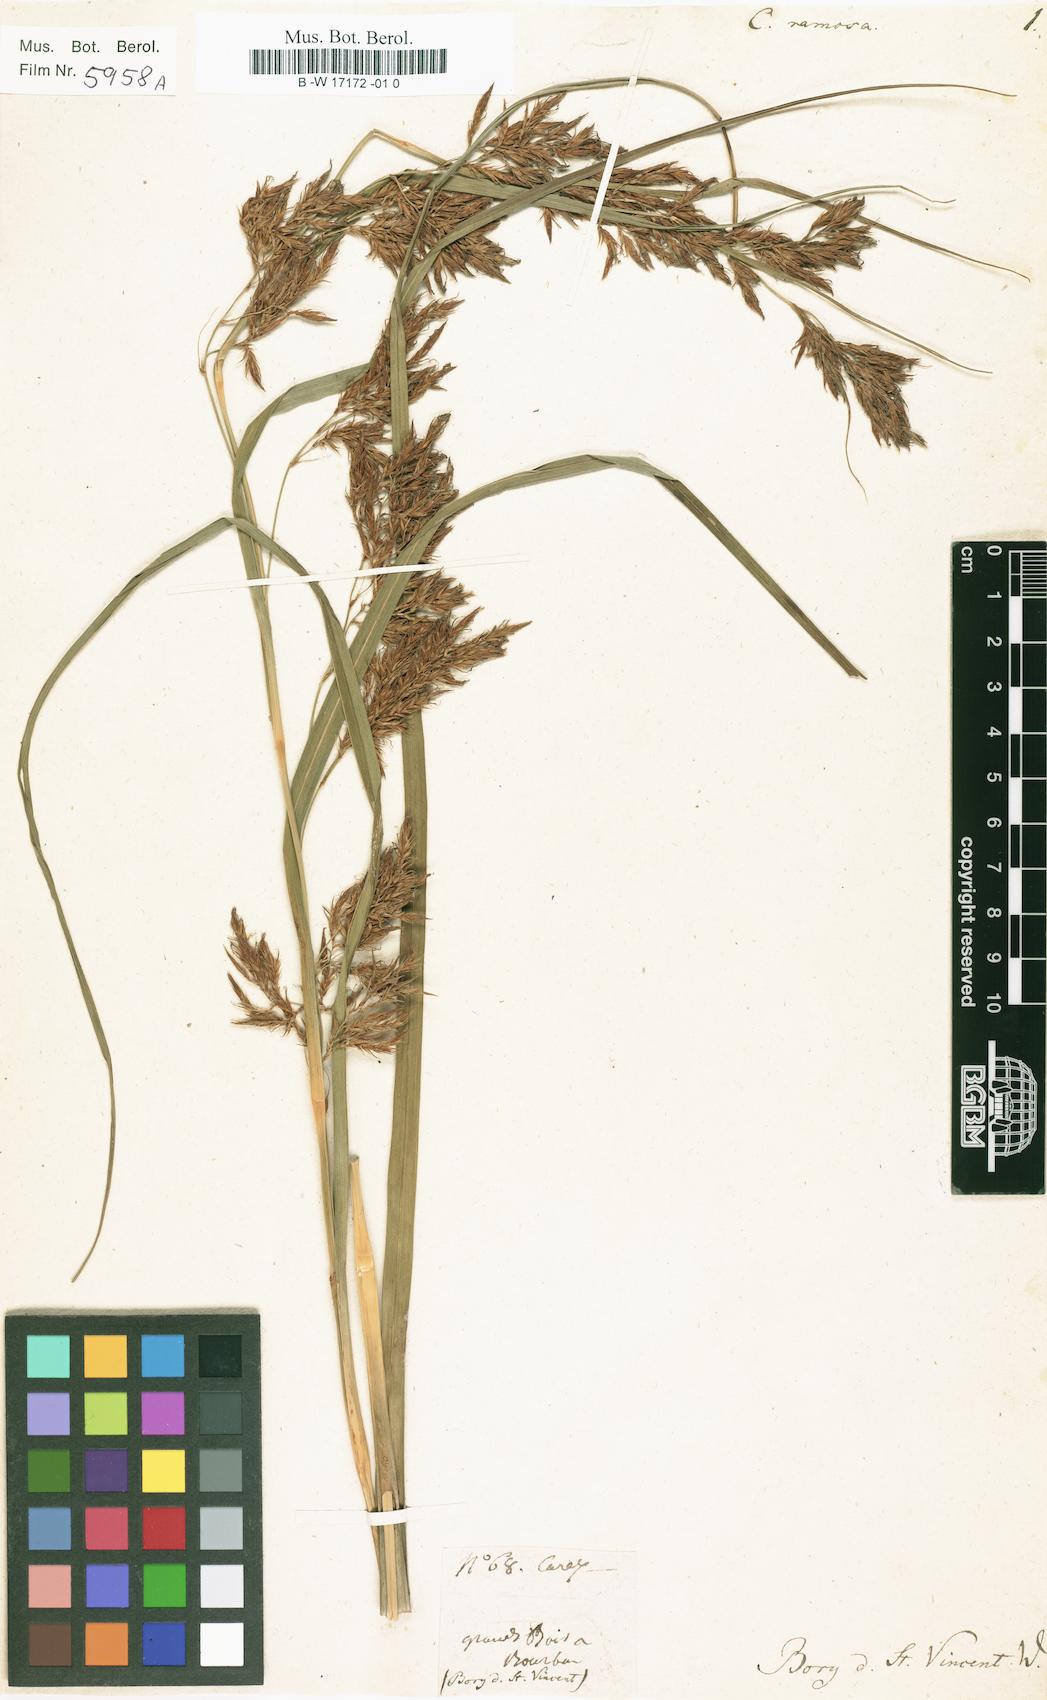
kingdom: Plantae
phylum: Tracheophyta
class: Liliopsida
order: Poales
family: Cyperaceae
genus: Carex
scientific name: Carex ramosa
